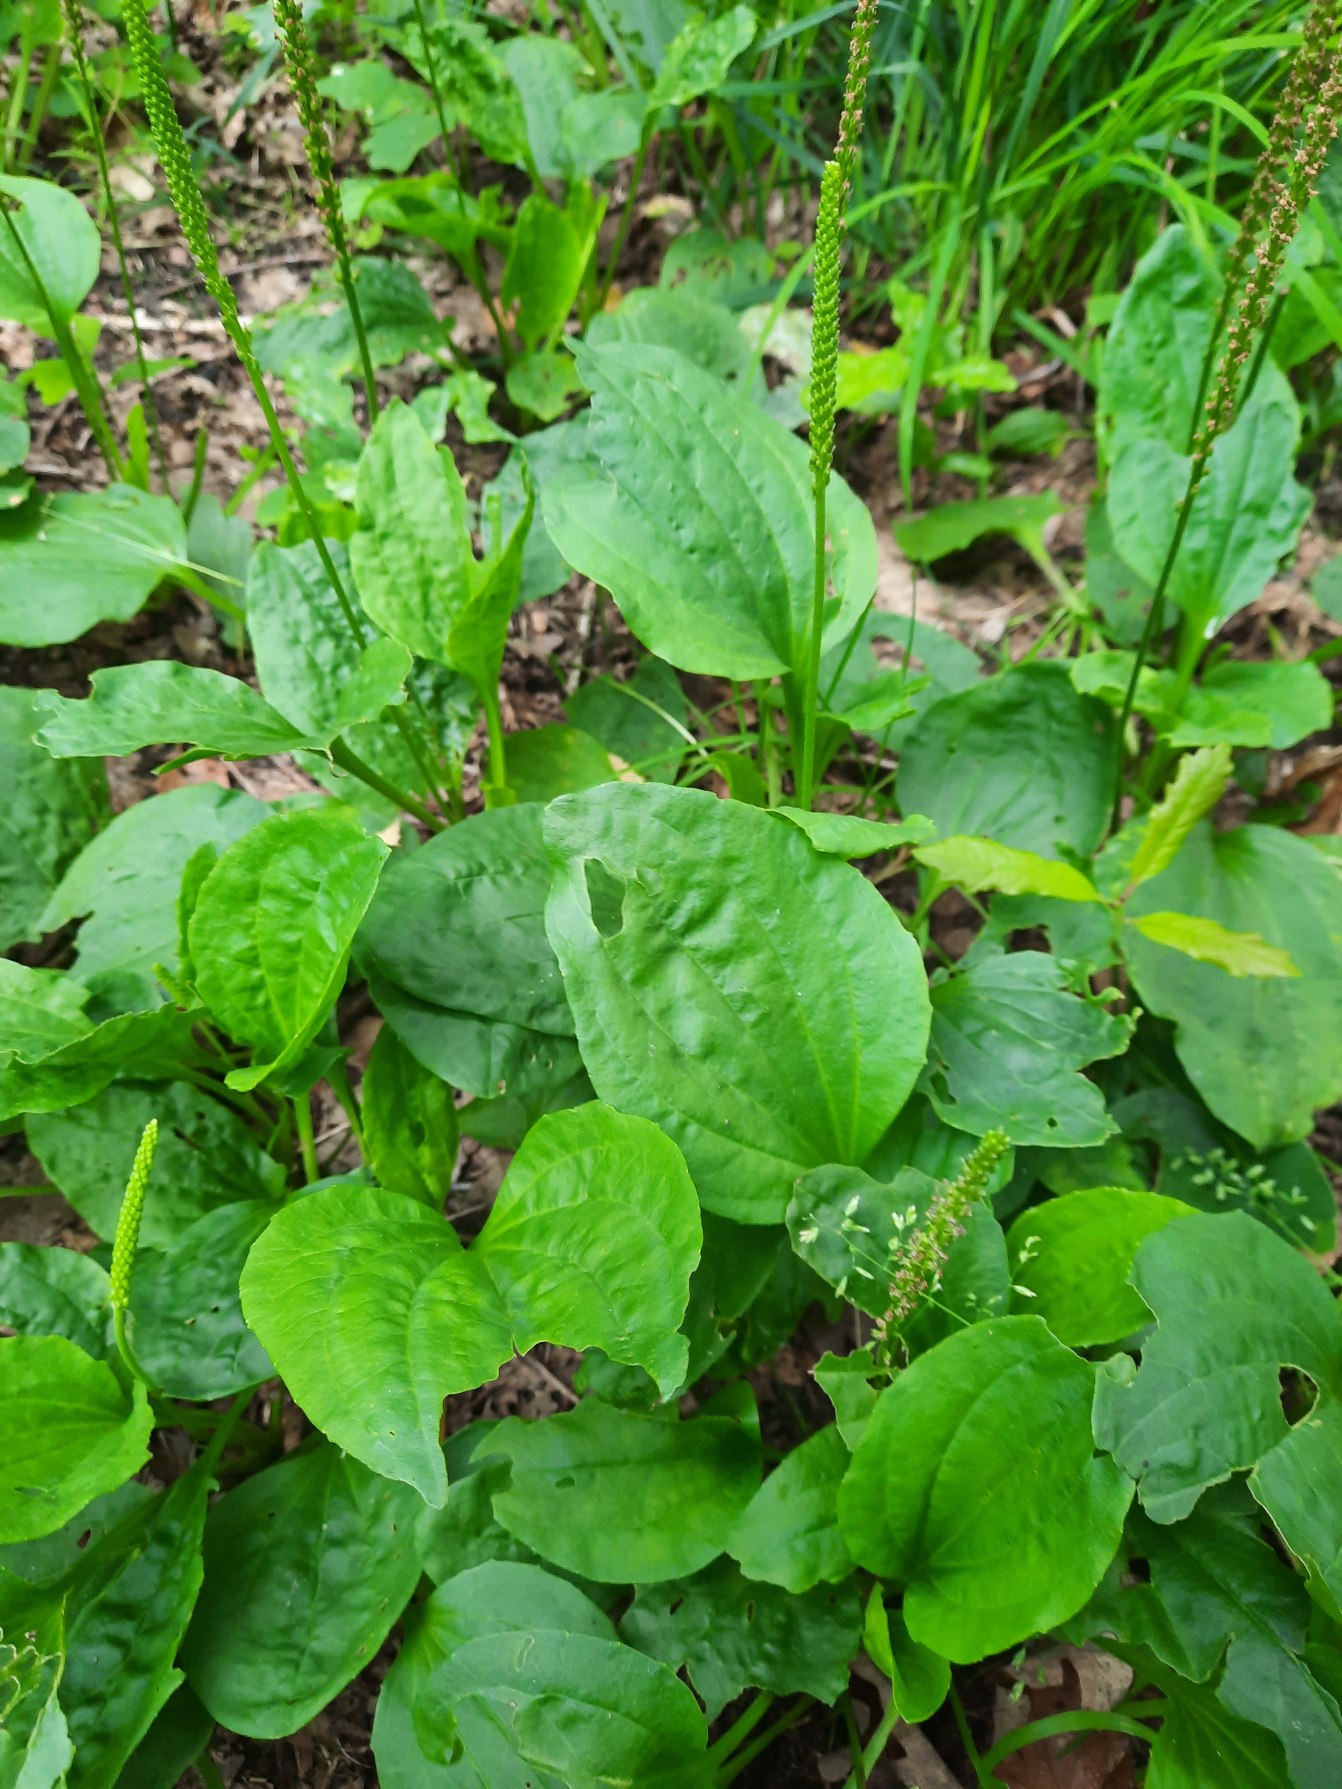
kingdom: Plantae
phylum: Tracheophyta
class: Magnoliopsida
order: Lamiales
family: Plantaginaceae
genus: Plantago
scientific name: Plantago major
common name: Glat vejbred
